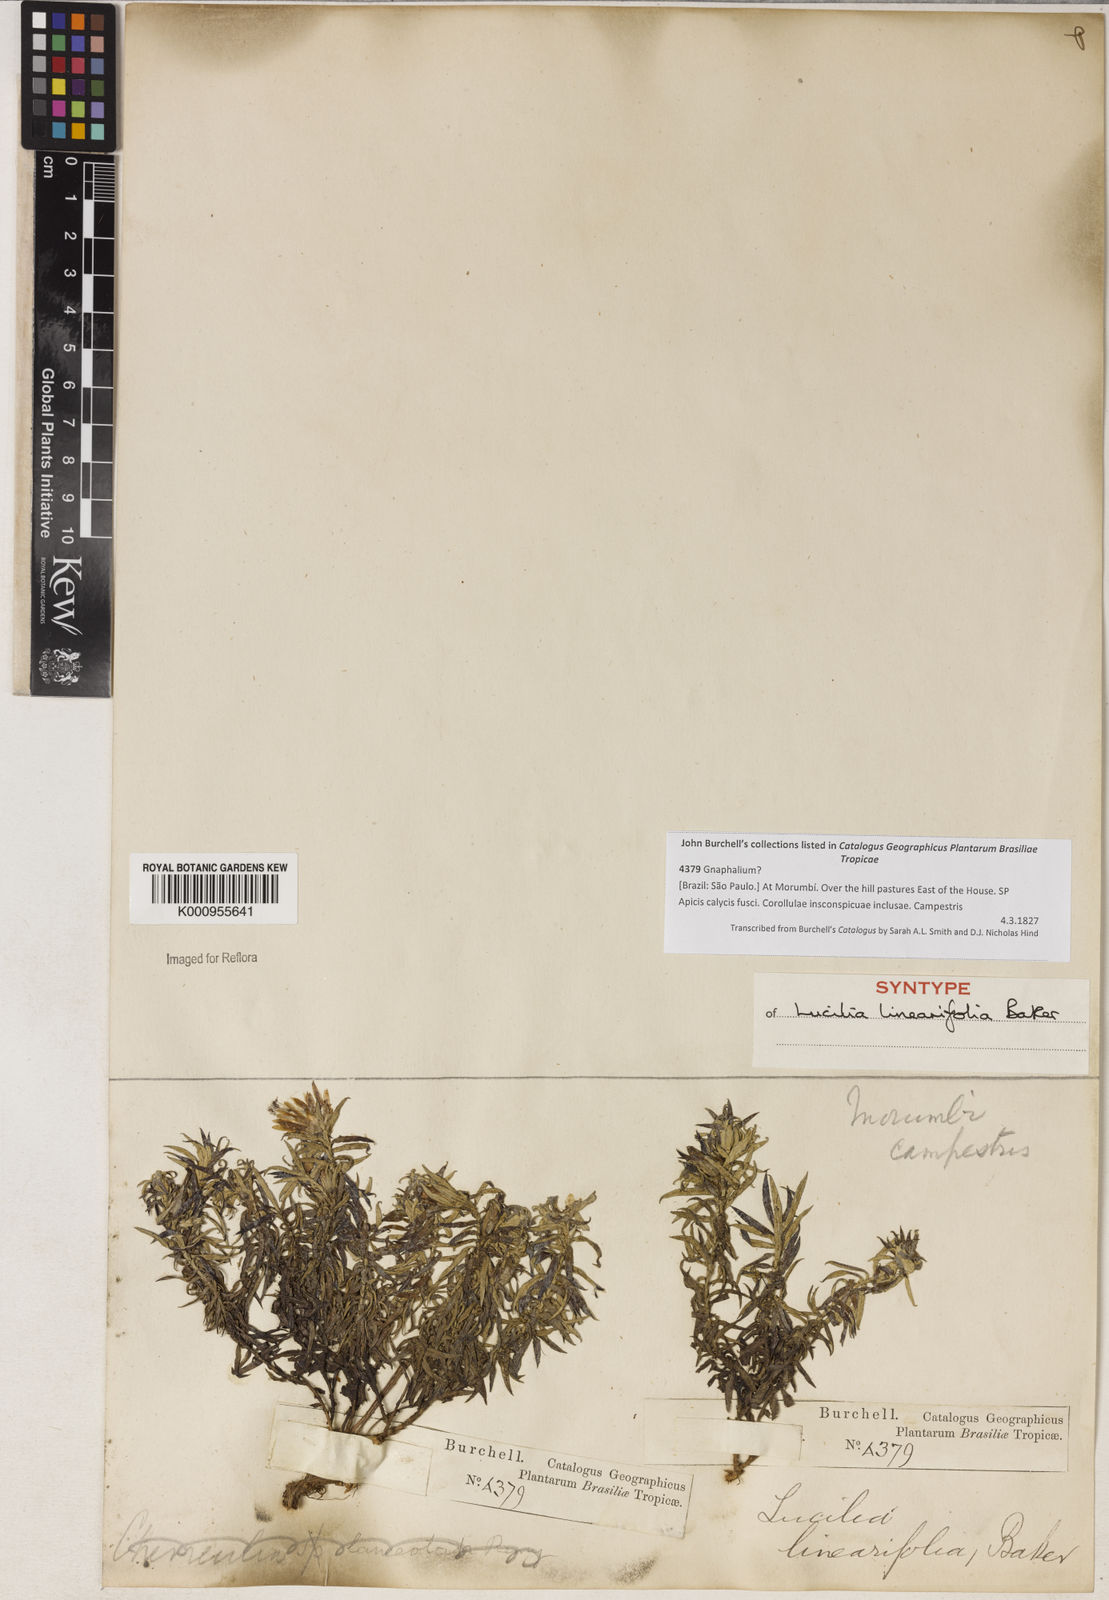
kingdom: Plantae
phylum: Tracheophyta
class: Magnoliopsida
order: Asterales
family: Asteraceae
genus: Lucilia
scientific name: Lucilia linearifolia
